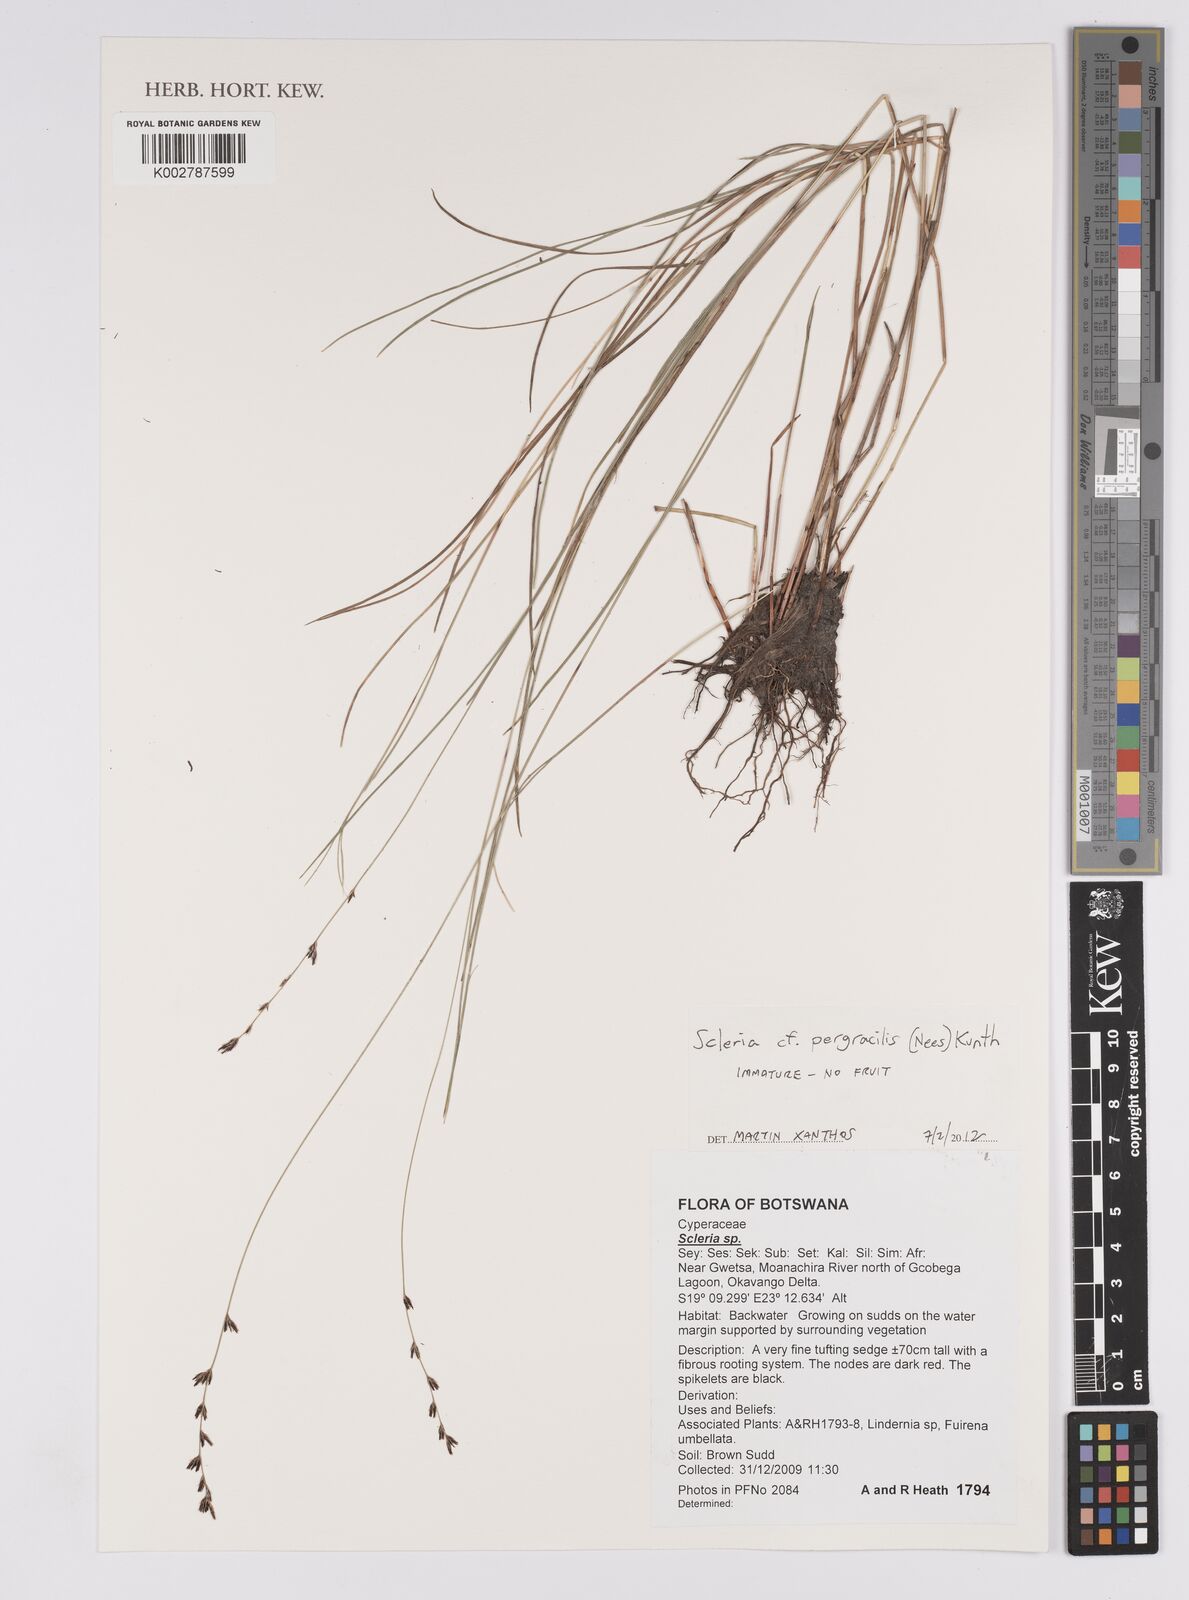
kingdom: Plantae
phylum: Tracheophyta
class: Liliopsida
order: Poales
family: Cyperaceae
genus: Scleria
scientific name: Scleria pergracilis
